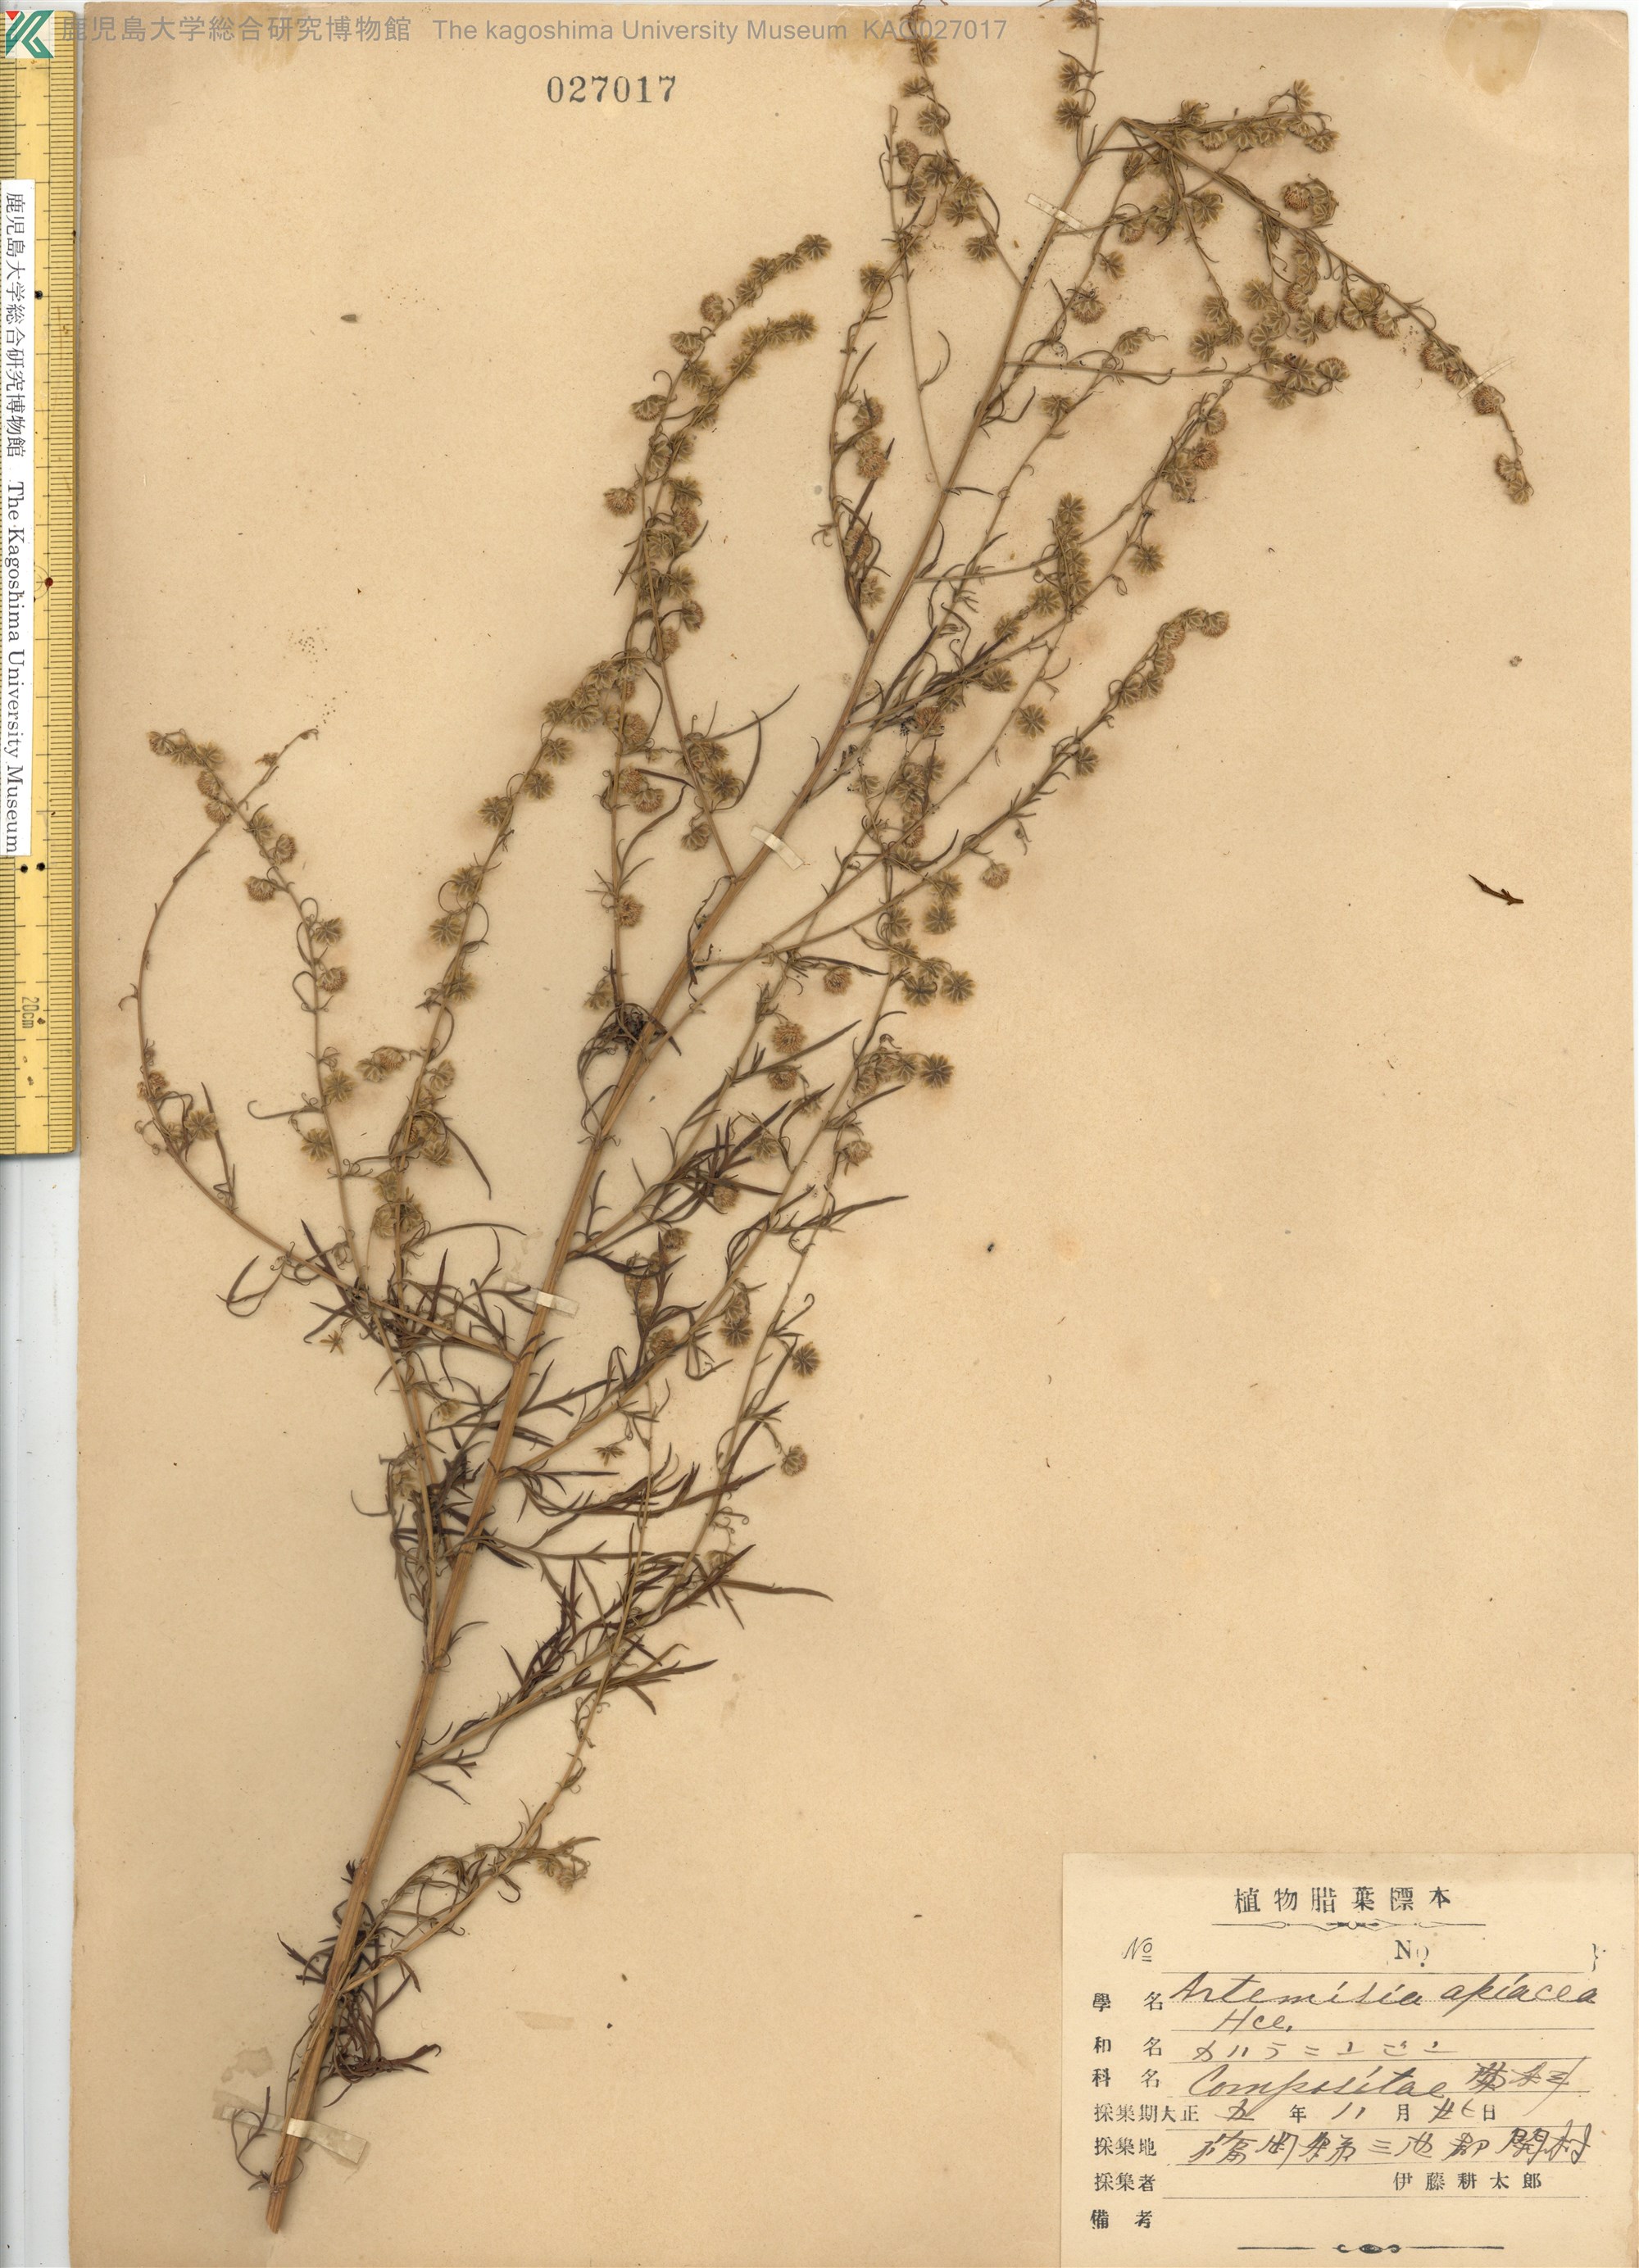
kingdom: Plantae
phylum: Tracheophyta
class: Magnoliopsida
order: Asterales
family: Asteraceae
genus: Artemisia
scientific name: Artemisia carvifolia
